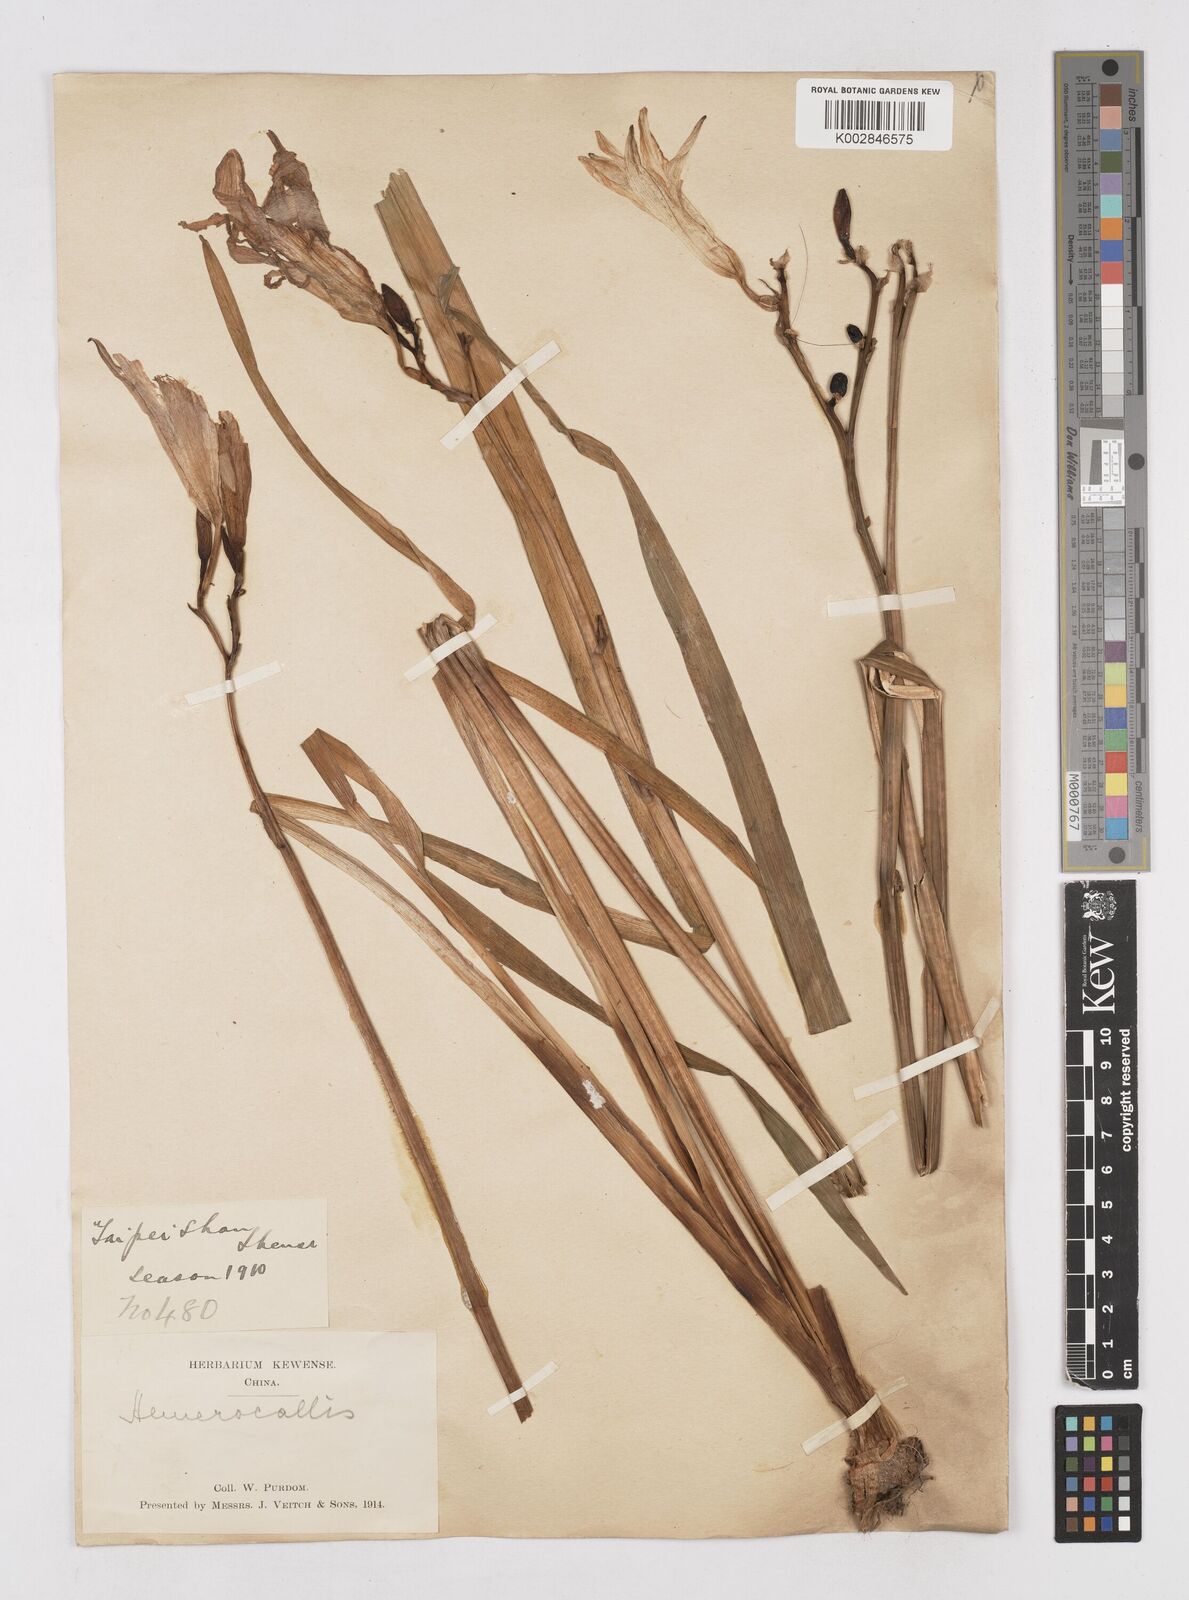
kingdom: Plantae
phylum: Tracheophyta
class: Liliopsida
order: Asparagales
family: Asphodelaceae
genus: Hemerocallis
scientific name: Hemerocallis
